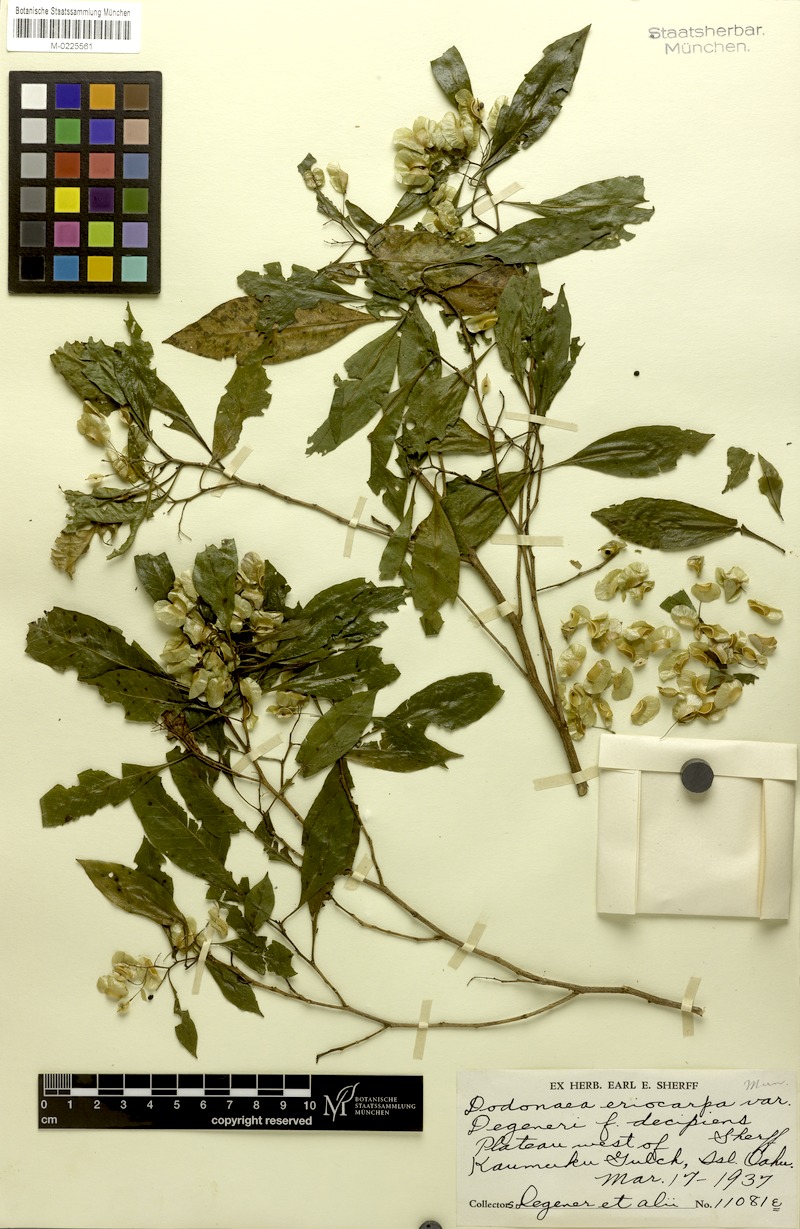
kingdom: Plantae
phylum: Tracheophyta
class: Magnoliopsida
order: Sapindales
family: Sapindaceae
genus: Dodonaea
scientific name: Dodonaea viscosa
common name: Hopbush
